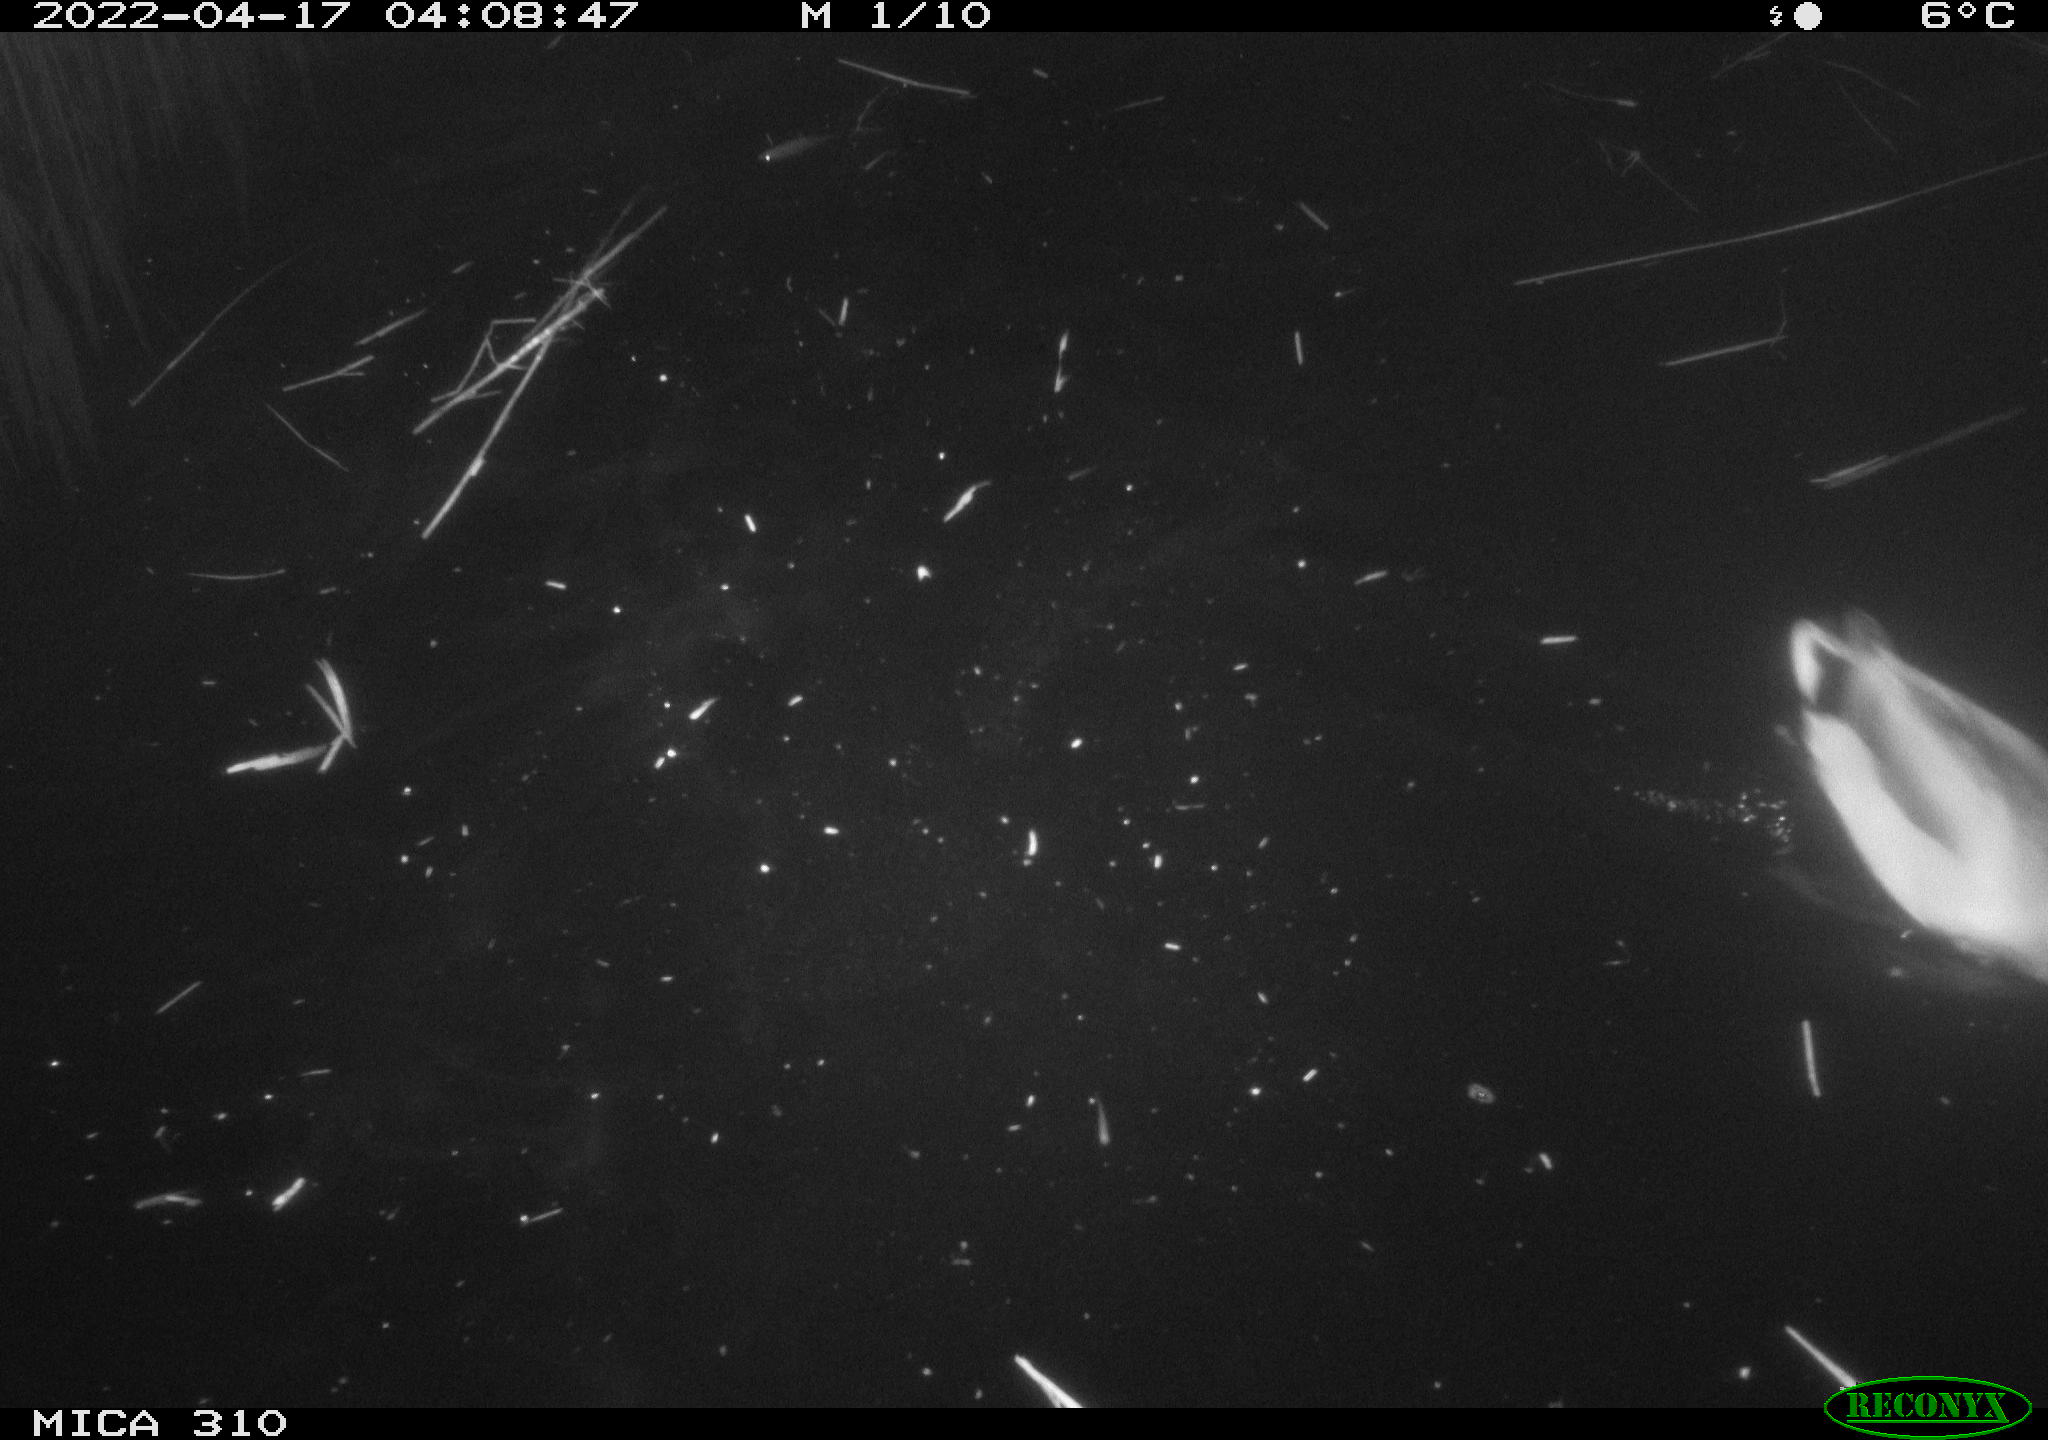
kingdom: Animalia
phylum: Chordata
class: Aves
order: Anseriformes
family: Anatidae
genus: Anas
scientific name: Anas platyrhynchos
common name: Mallard
